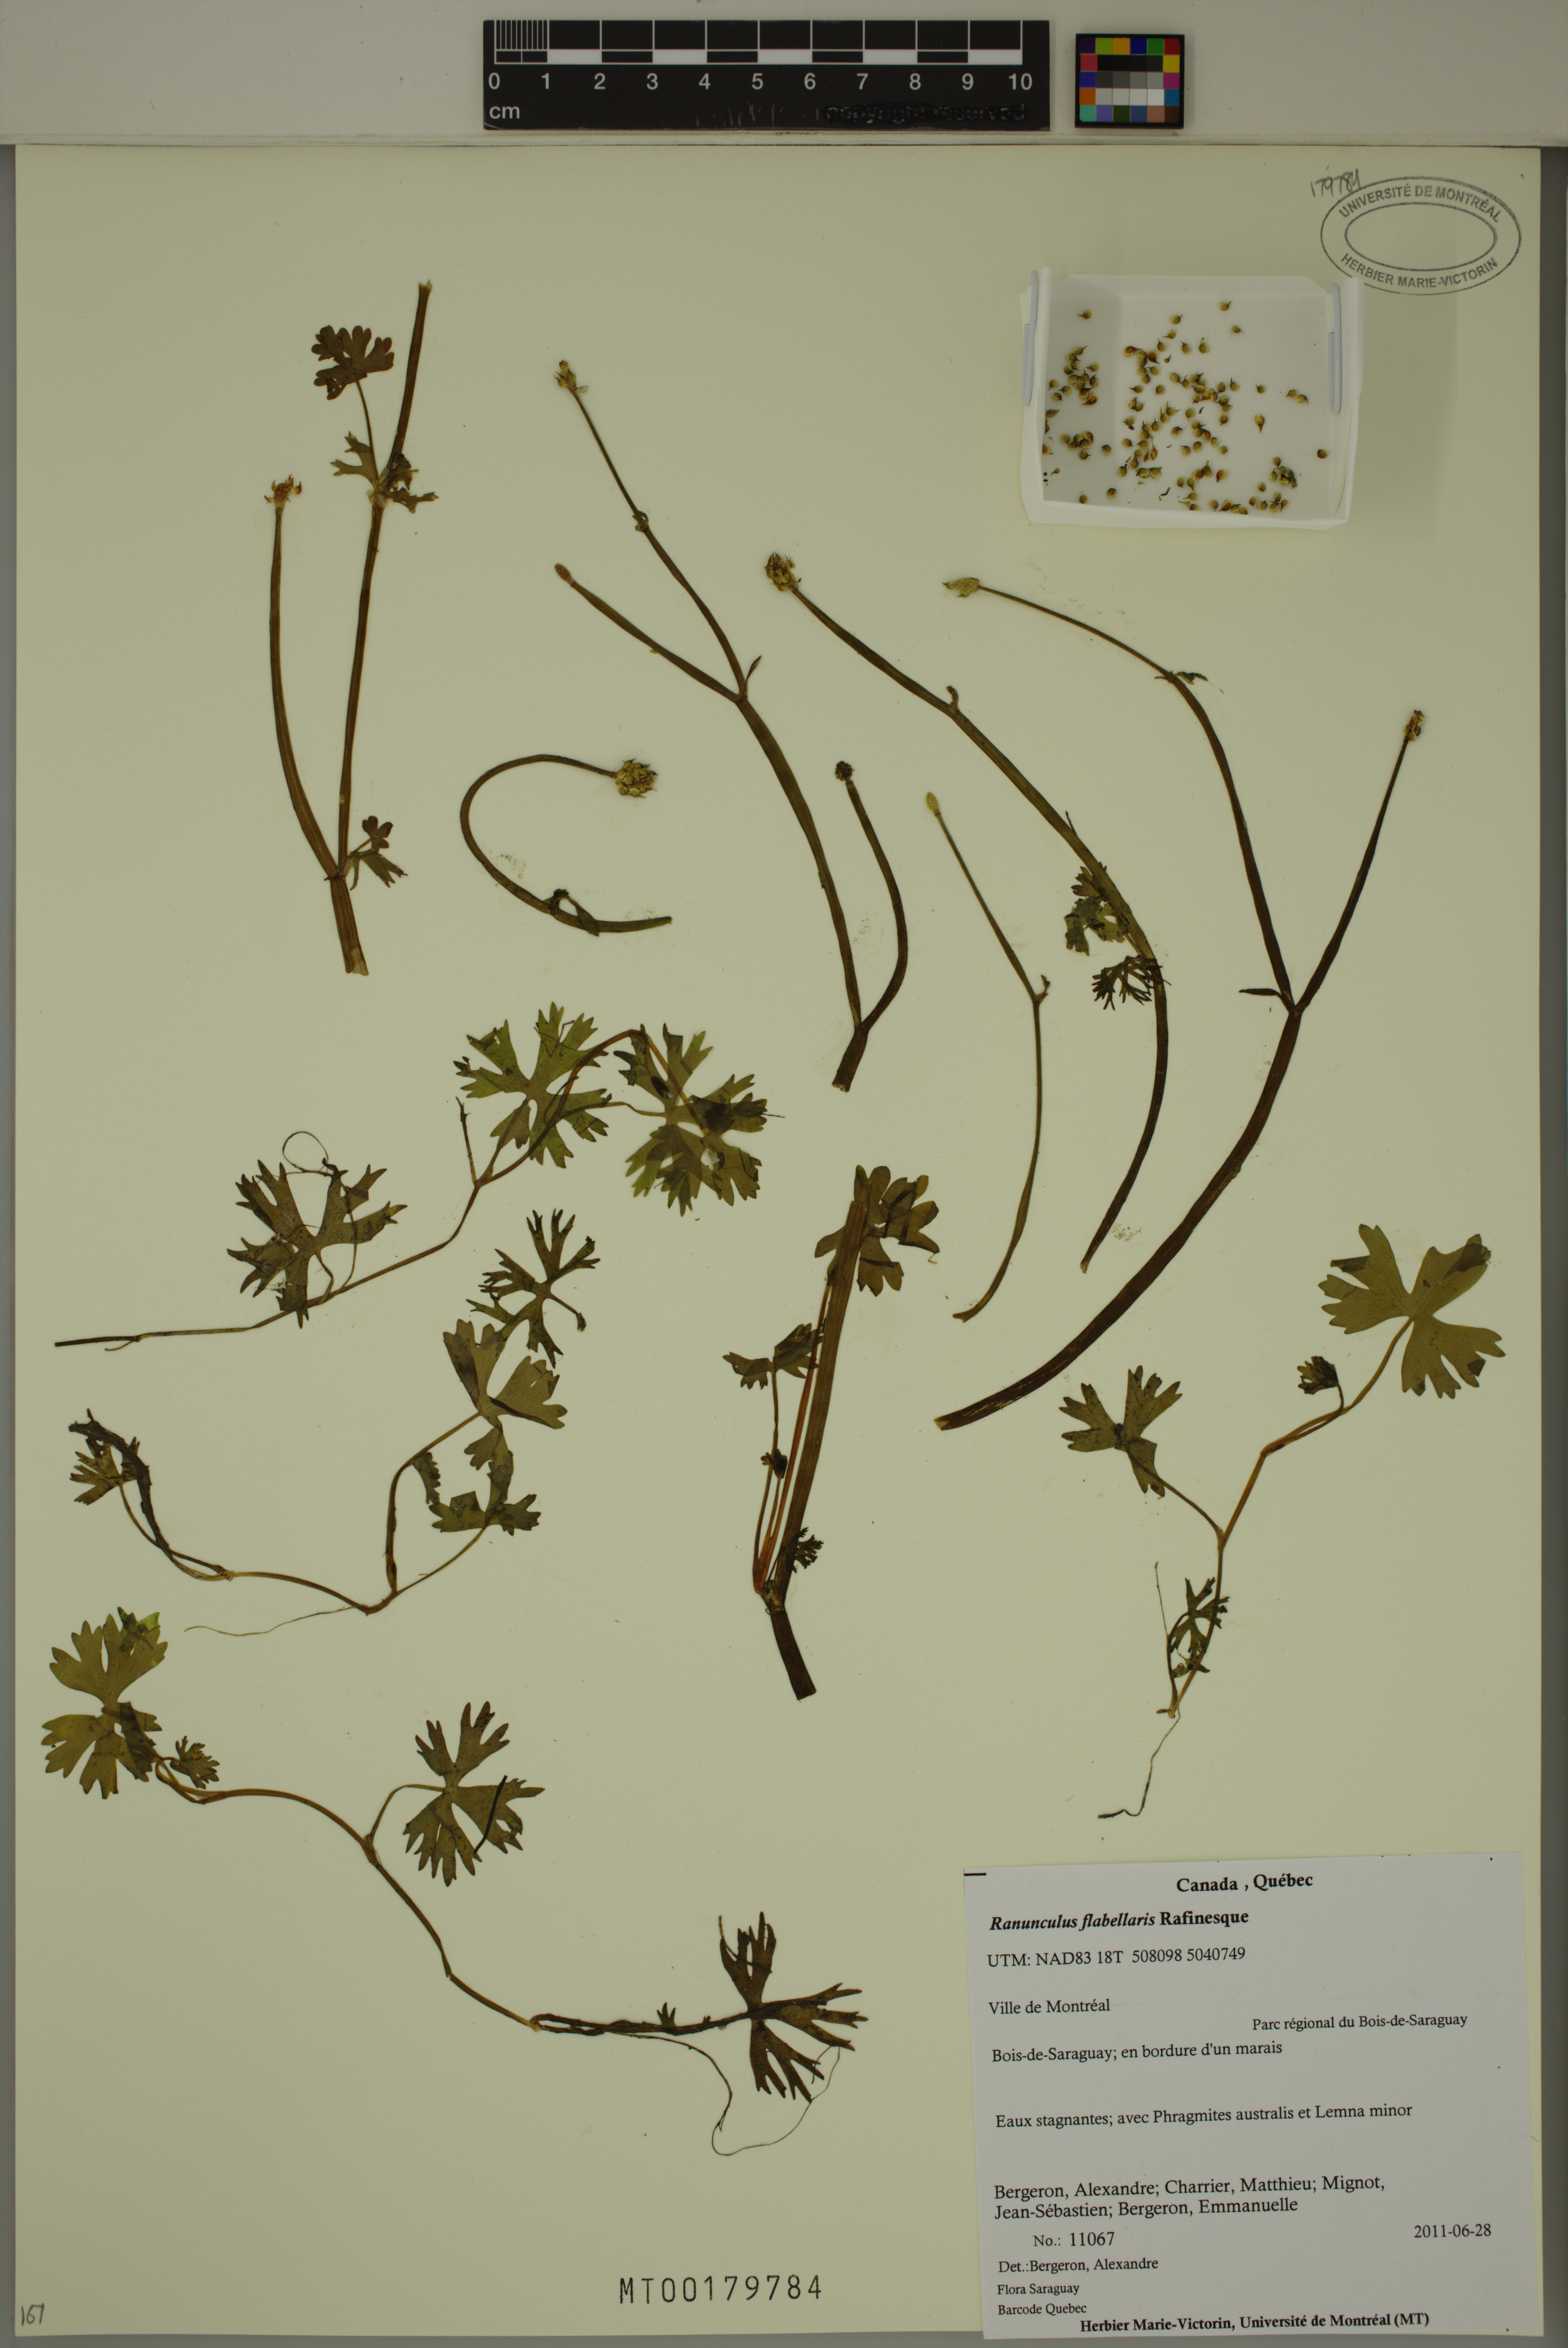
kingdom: Plantae
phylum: Tracheophyta
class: Magnoliopsida
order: Ranunculales
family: Ranunculaceae
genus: Ranunculus
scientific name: Ranunculus flabellaris
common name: Yellow water-crowfoot
